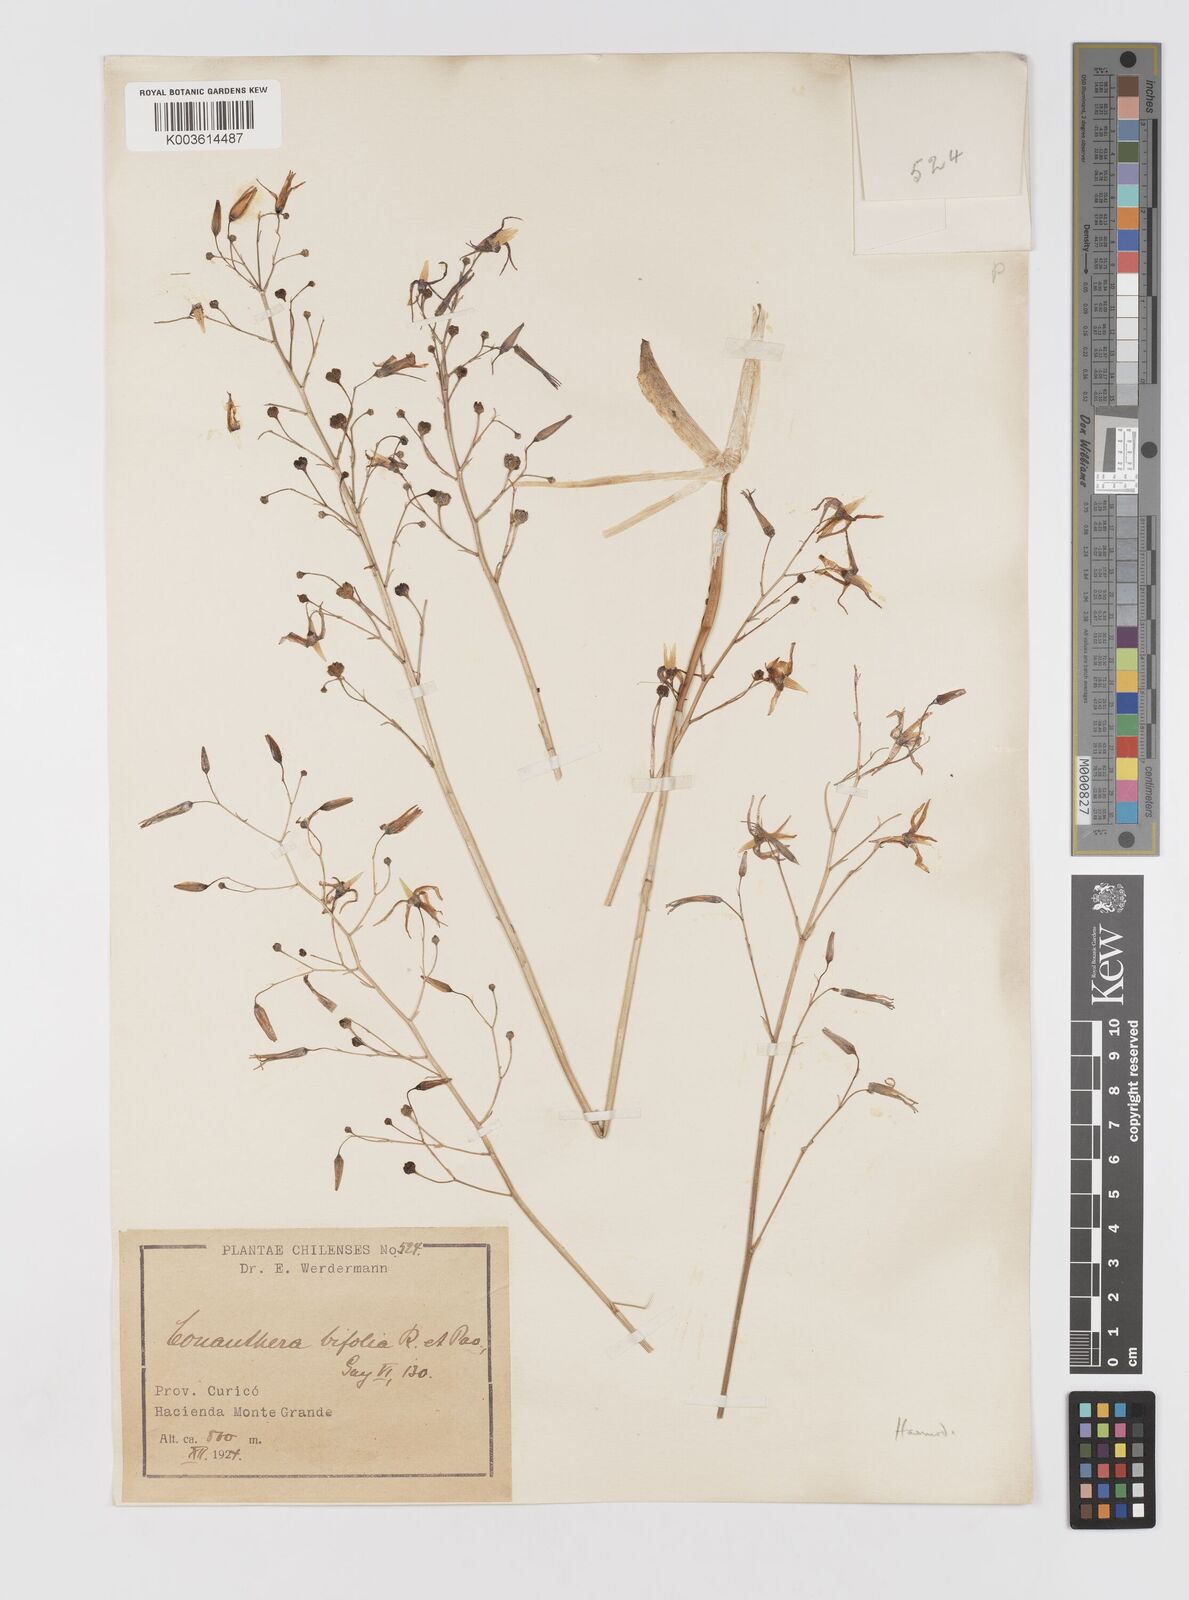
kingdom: Plantae
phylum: Tracheophyta
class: Liliopsida
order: Asparagales
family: Tecophilaeaceae
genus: Conanthera
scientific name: Conanthera bifolia
